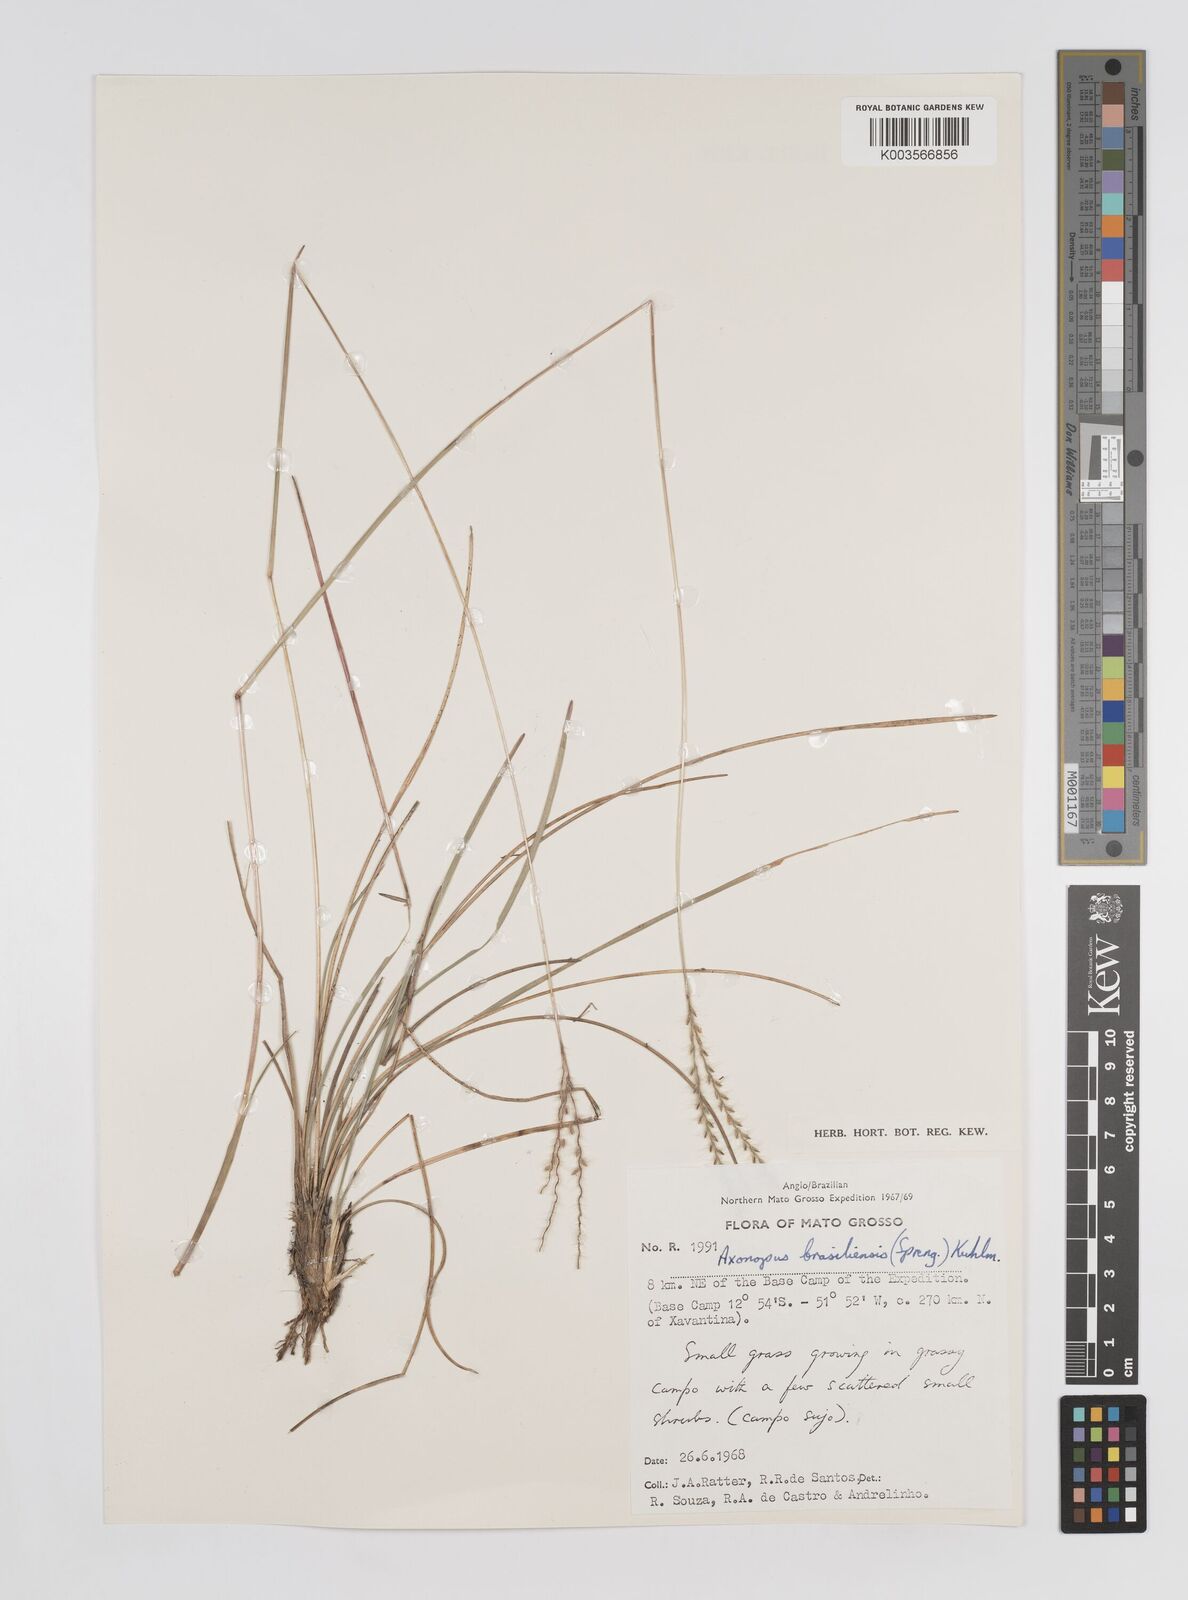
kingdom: Plantae
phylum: Tracheophyta
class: Liliopsida
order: Poales
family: Poaceae
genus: Axonopus
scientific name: Axonopus brasiliensis
